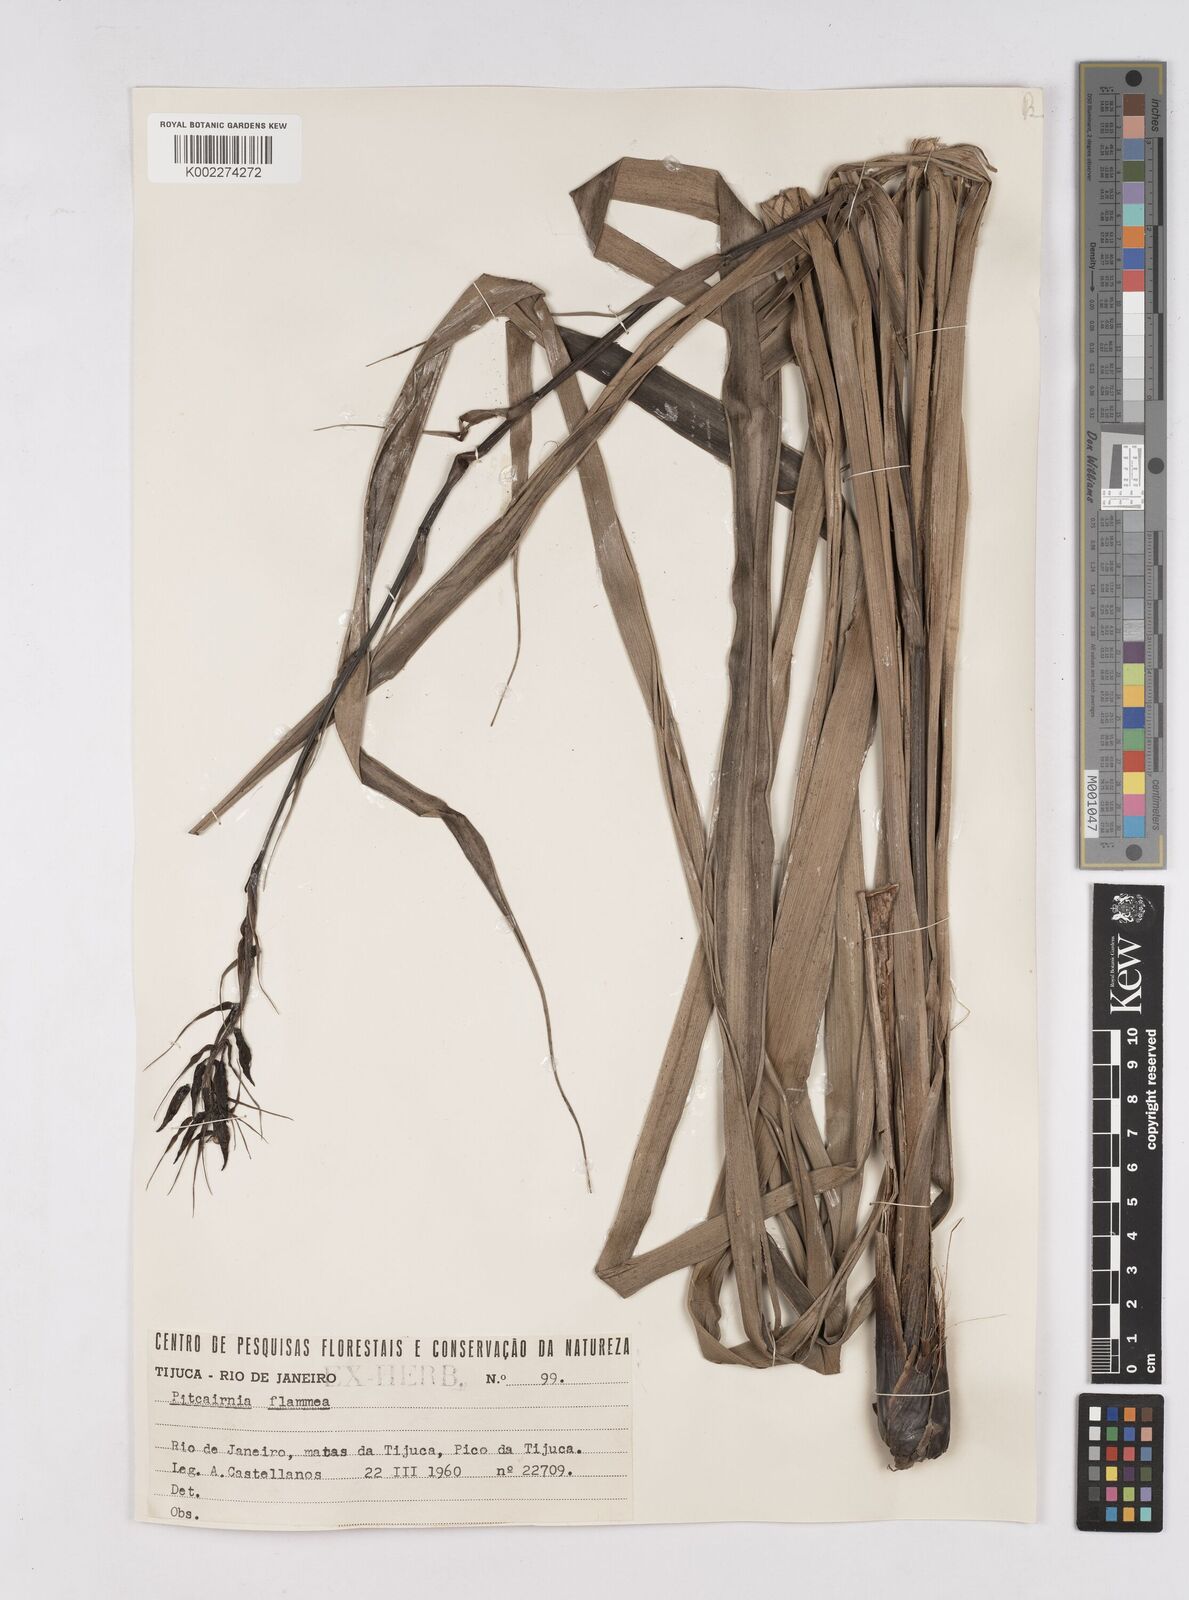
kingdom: Plantae
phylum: Tracheophyta
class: Liliopsida
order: Poales
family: Bromeliaceae
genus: Pitcairnia
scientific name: Pitcairnia flammea
